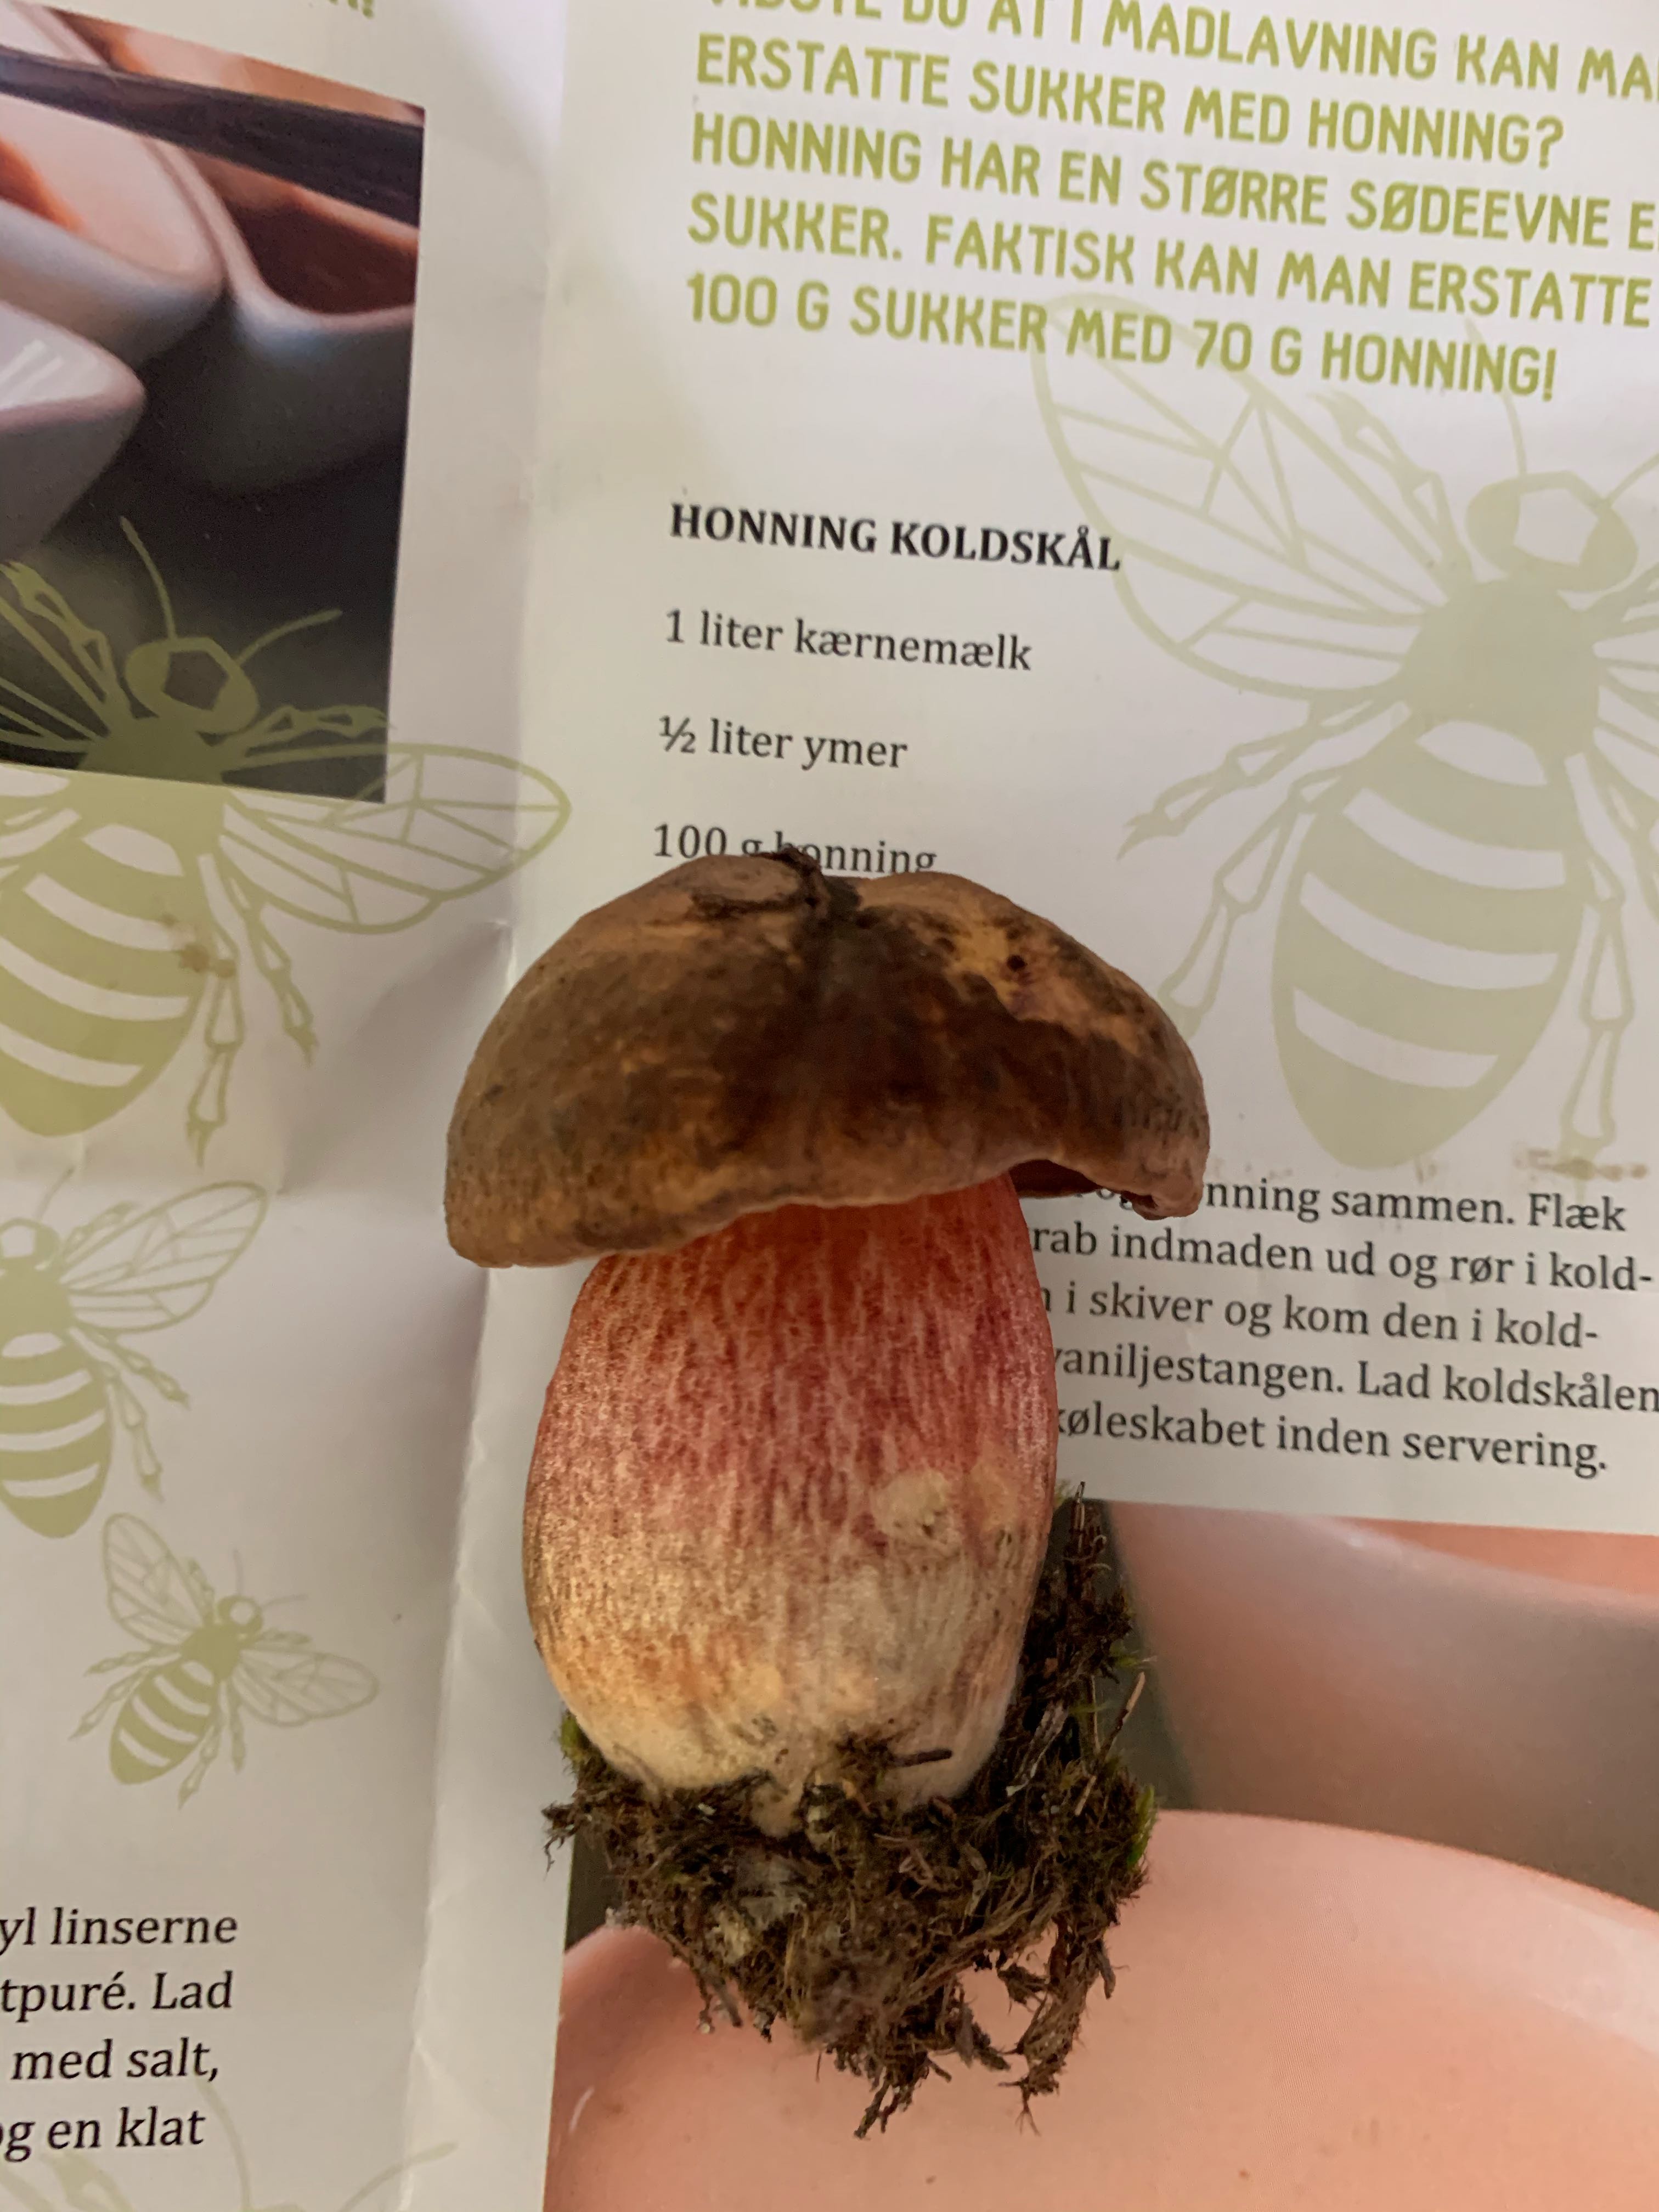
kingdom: Fungi
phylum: Basidiomycota
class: Agaricomycetes
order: Boletales
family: Boletaceae
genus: Neoboletus
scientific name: Neoboletus erythropus
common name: punktstokket indigorørhat
